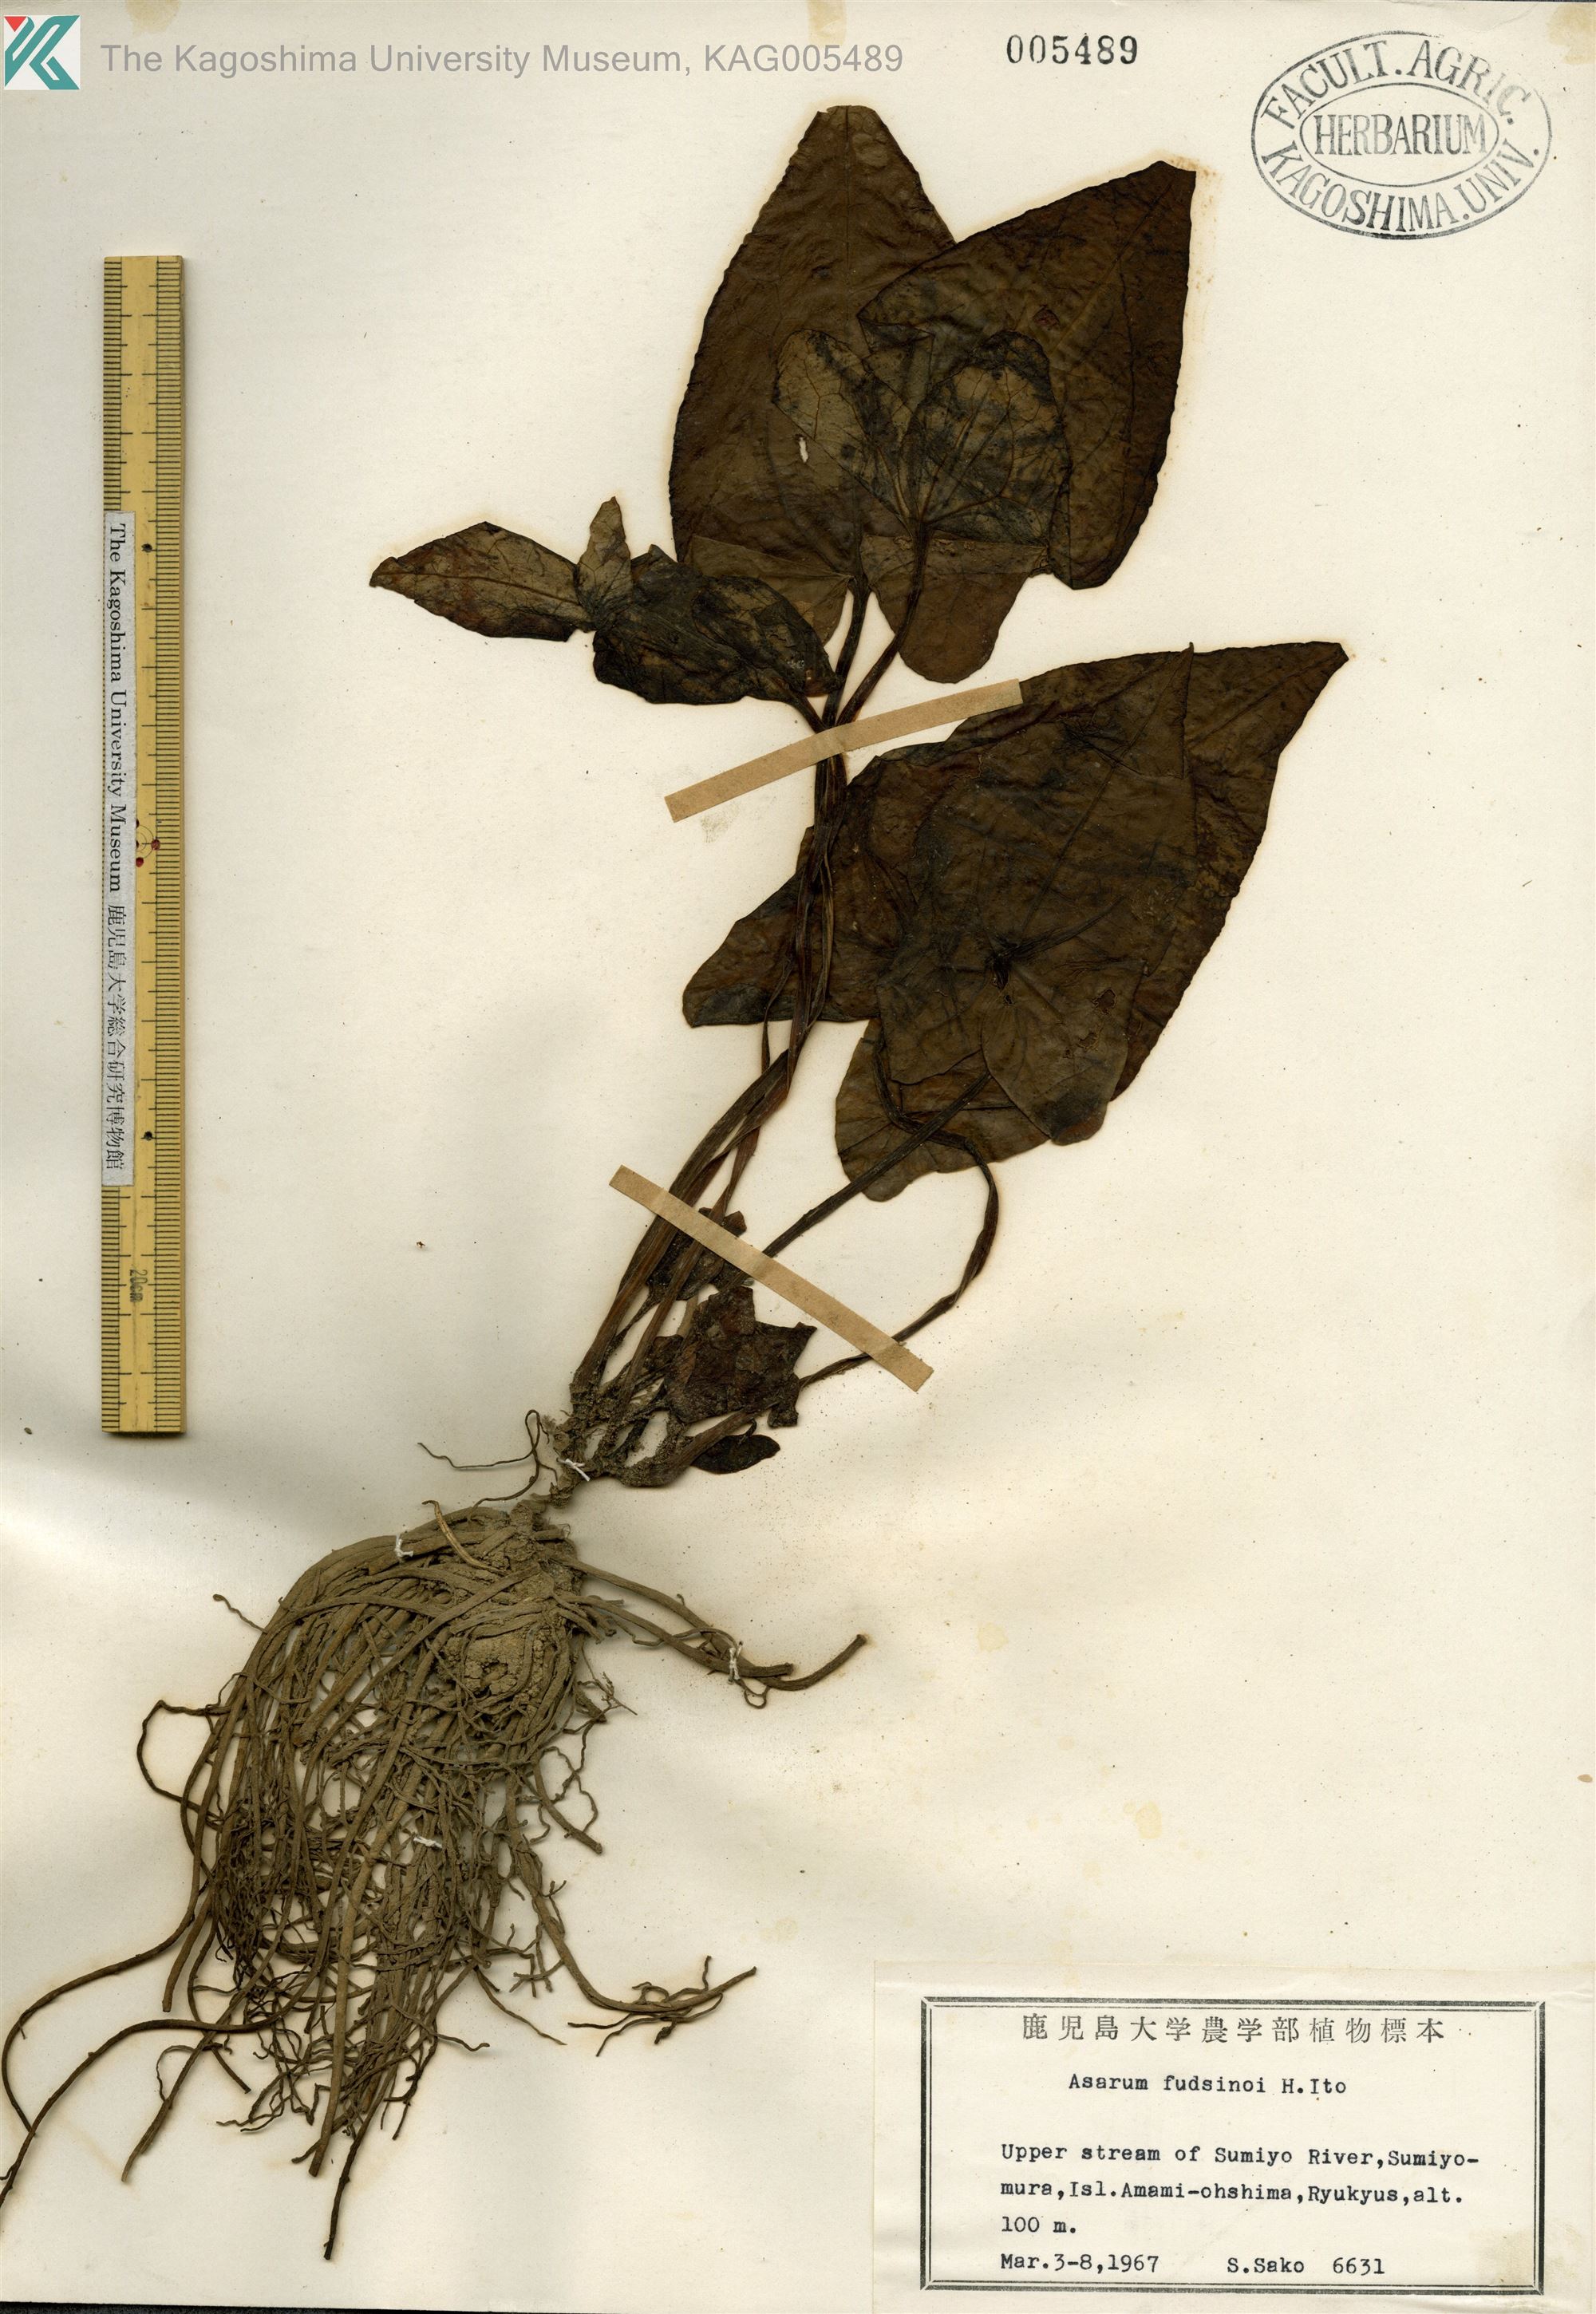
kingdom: Plantae
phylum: Tracheophyta
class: Magnoliopsida
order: Piperales
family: Aristolochiaceae
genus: Asarum
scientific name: Asarum
